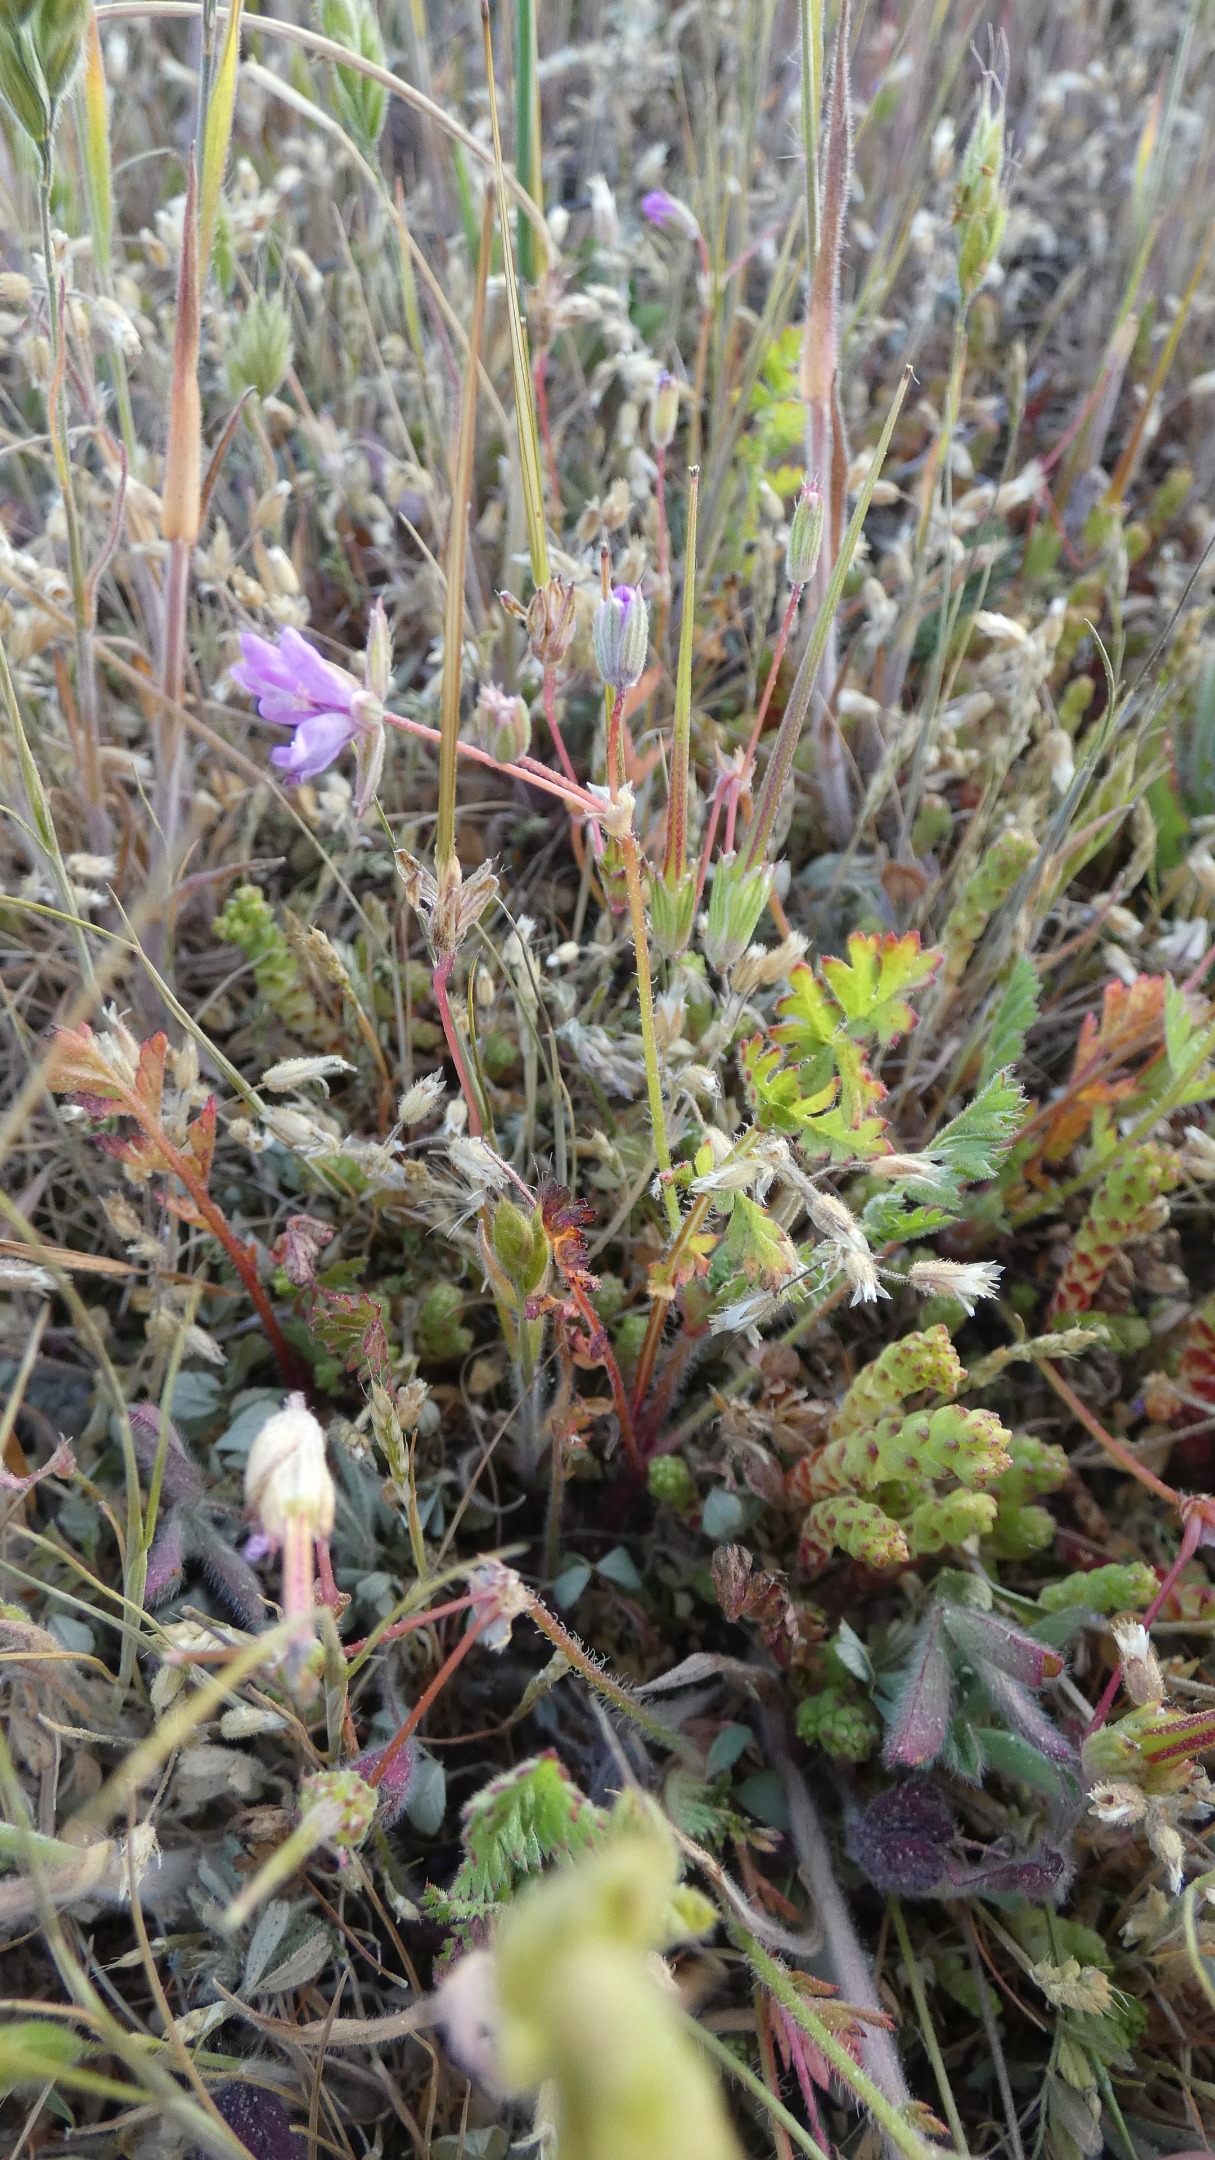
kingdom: Plantae
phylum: Tracheophyta
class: Magnoliopsida
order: Geraniales
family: Geraniaceae
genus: Erodium
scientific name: Erodium cicutarium
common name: Hejrenæb
